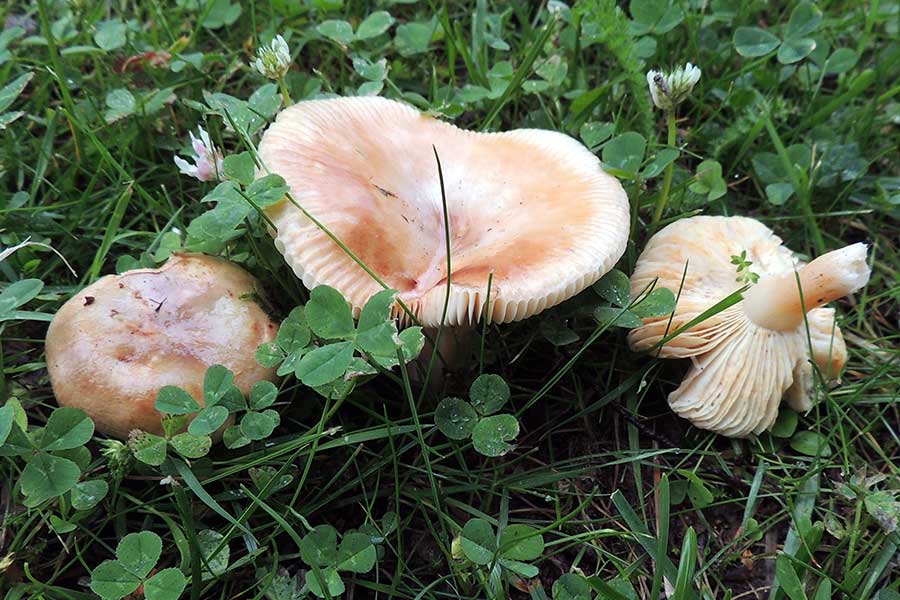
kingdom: Fungi
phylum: Basidiomycota
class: Agaricomycetes
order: Russulales
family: Russulaceae
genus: Russula
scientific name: Russula versicolor
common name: foranderlig skørhat
